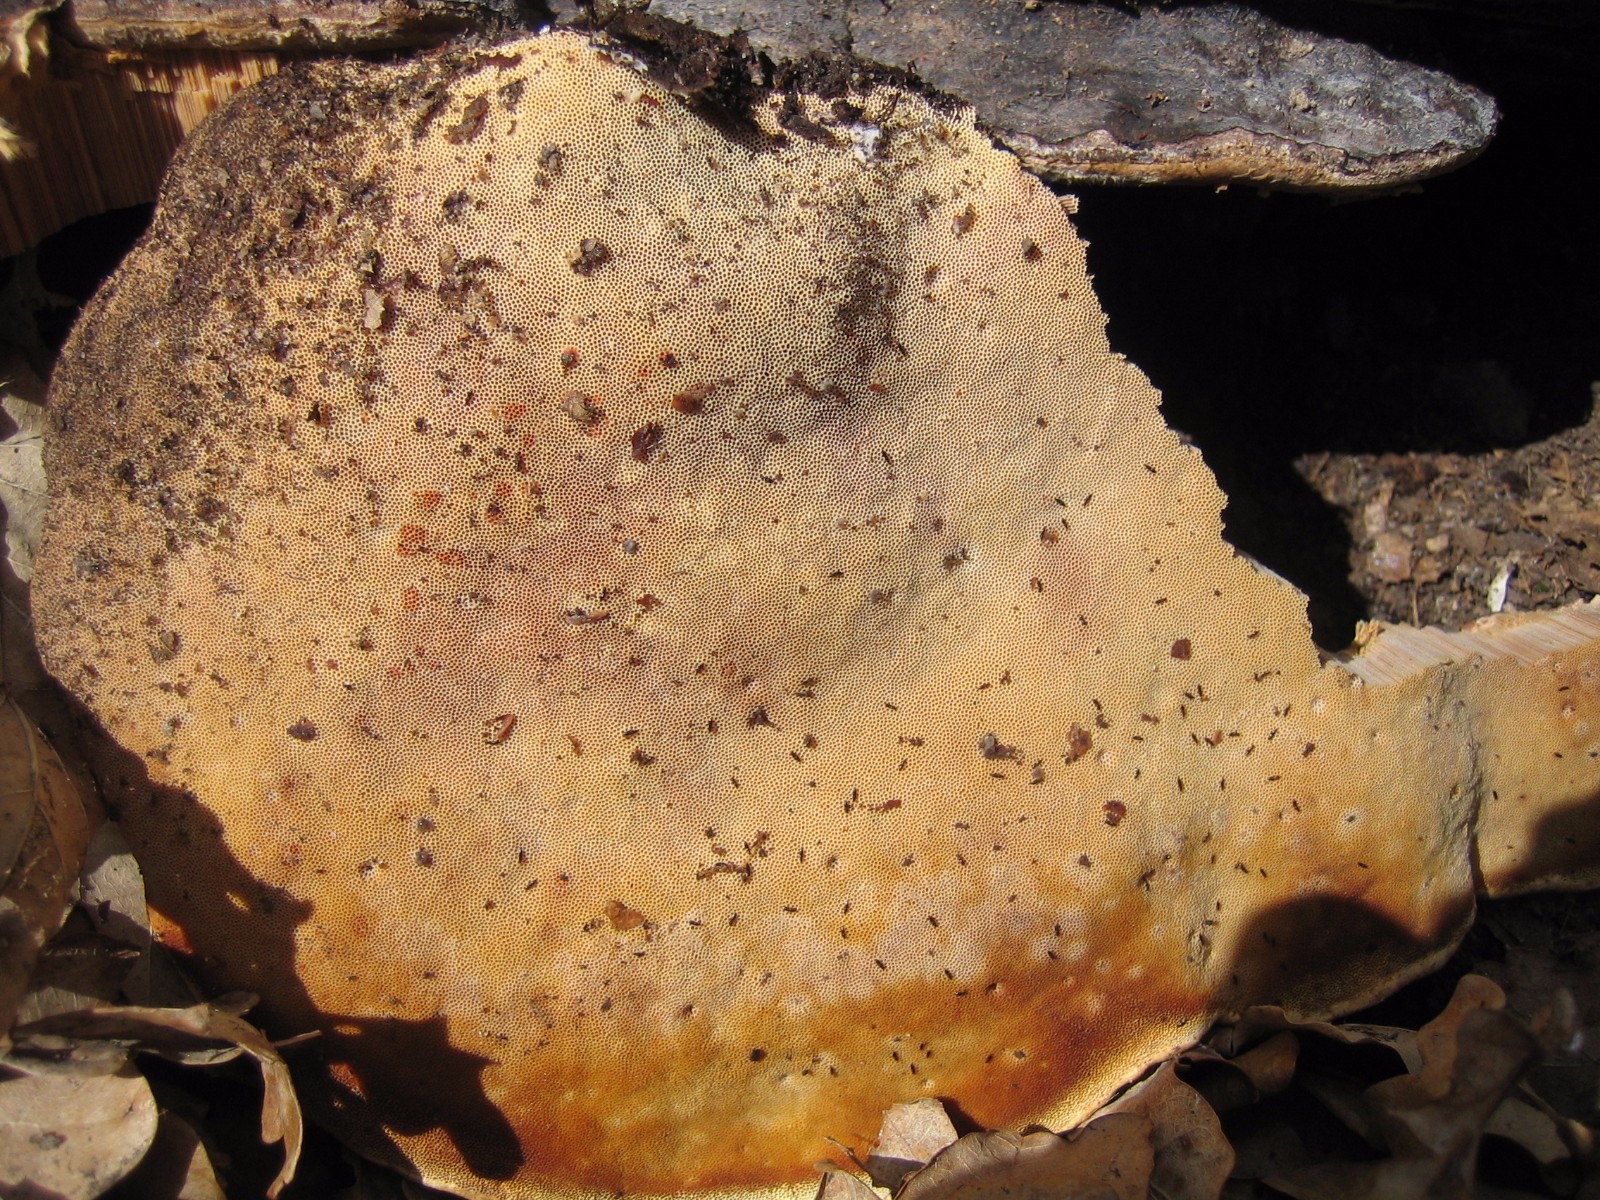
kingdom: Fungi
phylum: Basidiomycota
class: Agaricomycetes
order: Polyporales
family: Fomitopsidaceae
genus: Fomitopsis
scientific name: Fomitopsis pinicola
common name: randbæltet hovporesvamp
